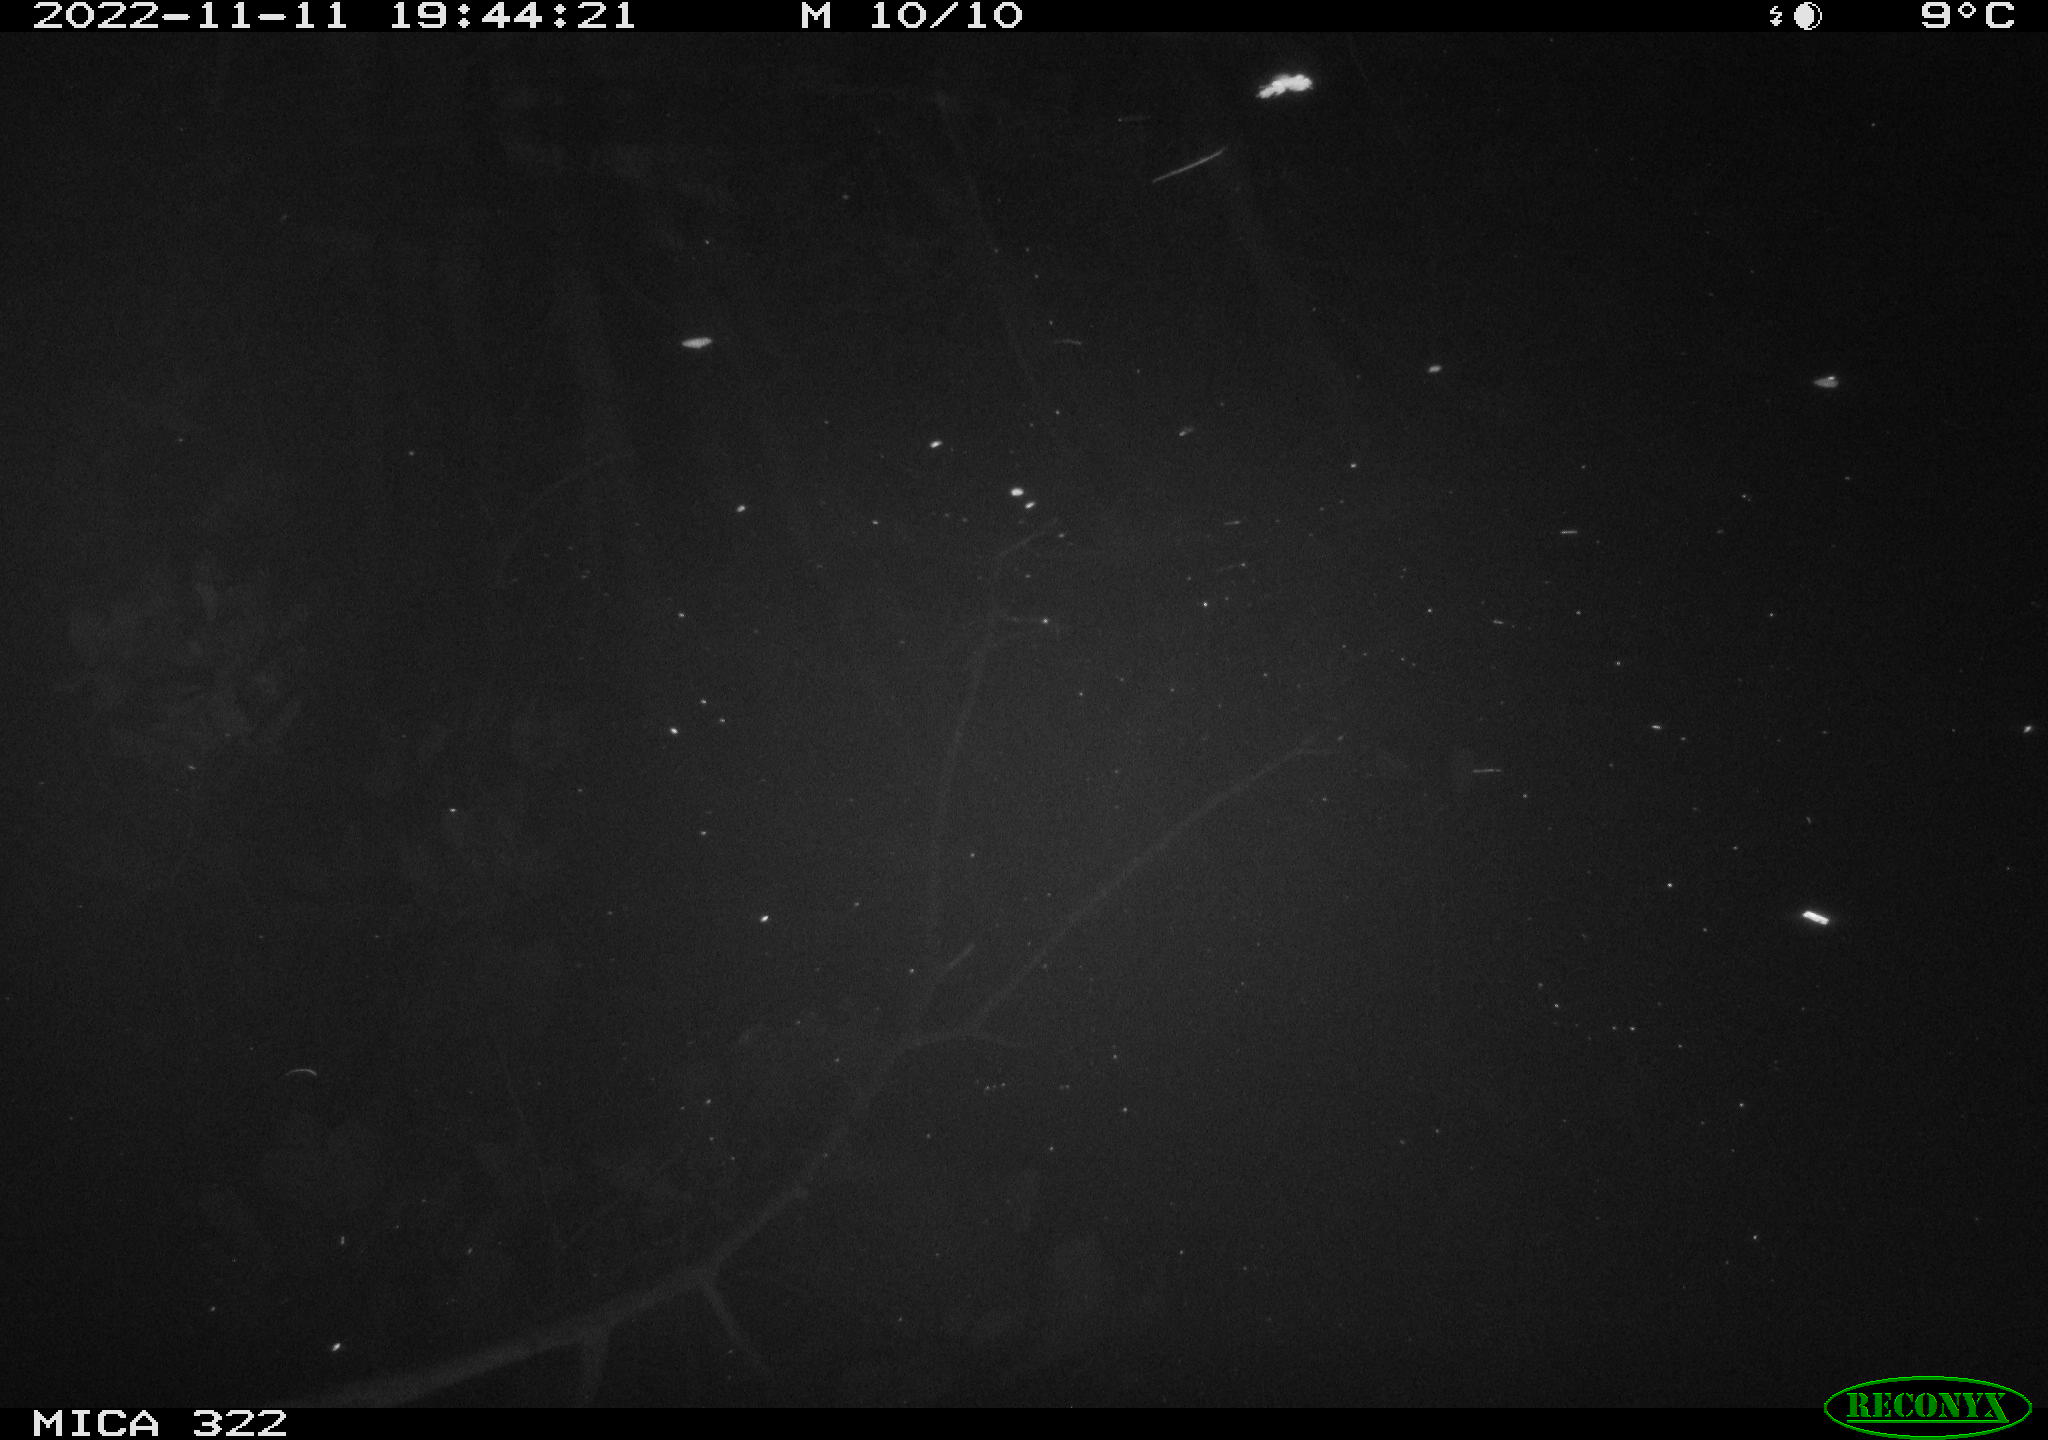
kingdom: Animalia
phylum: Chordata
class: Mammalia
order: Rodentia
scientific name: Rodentia
